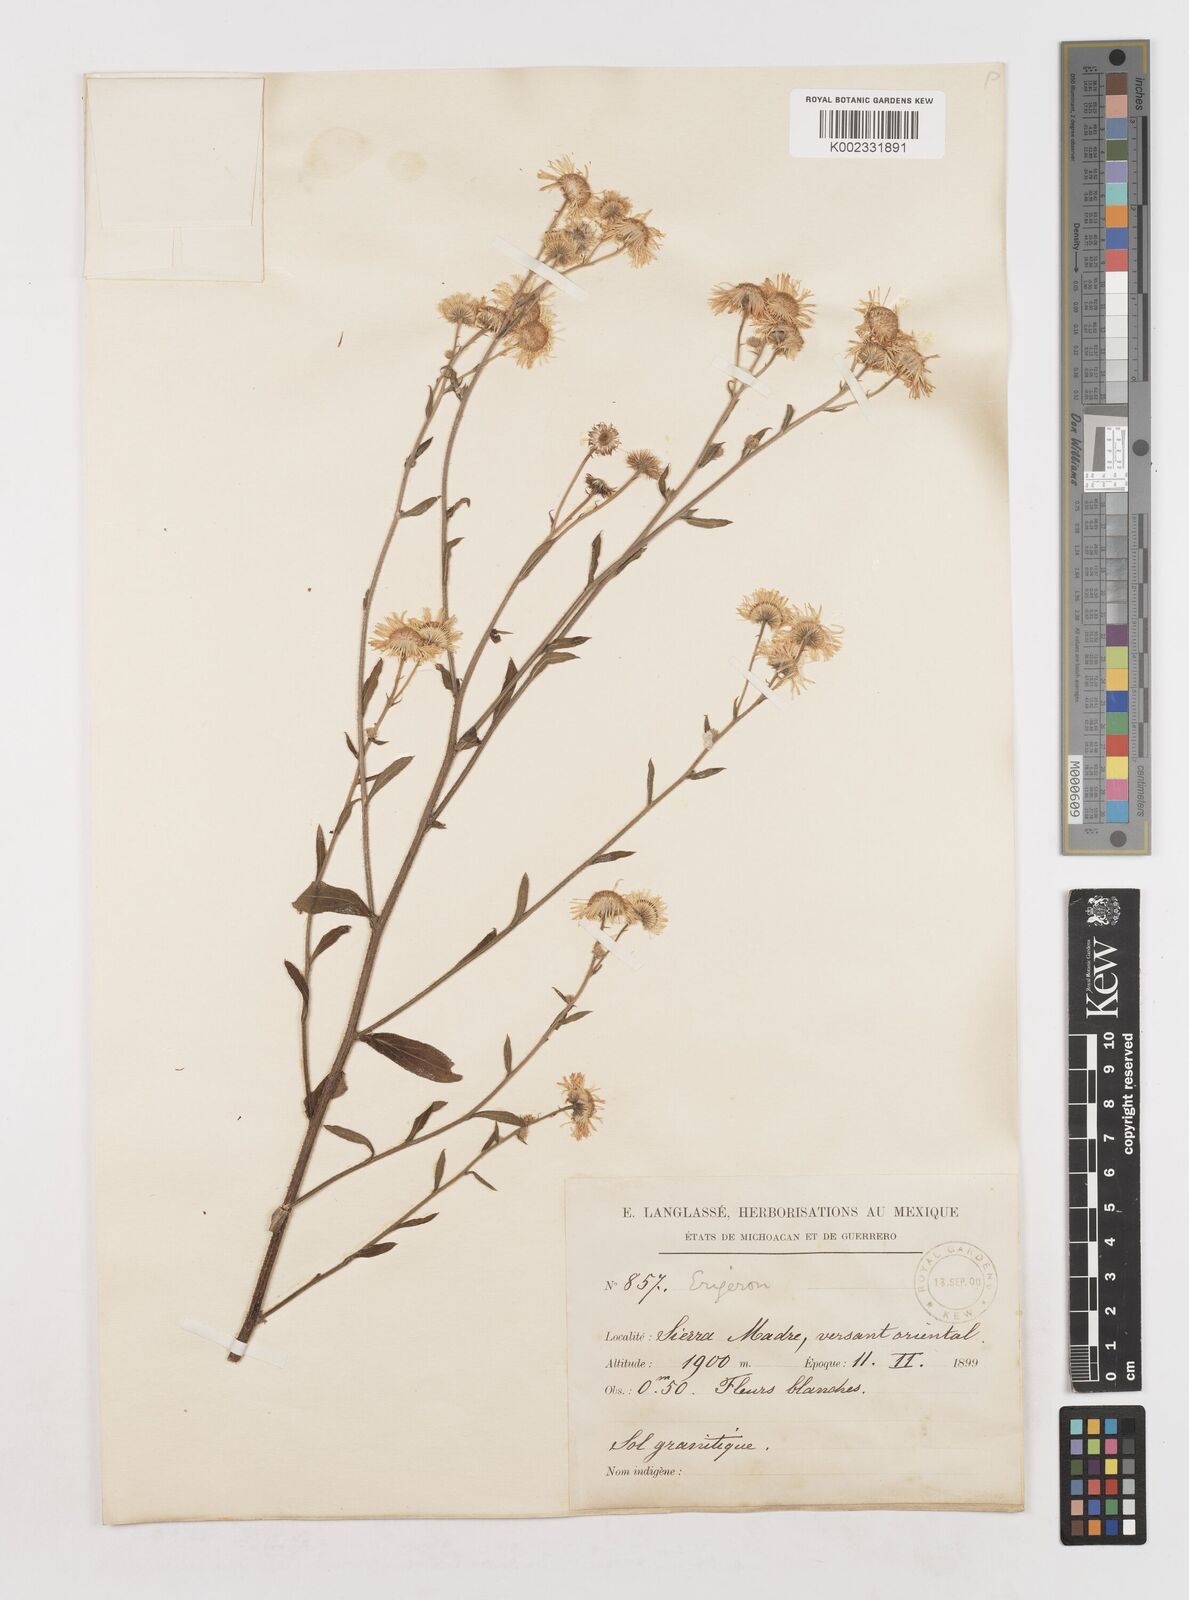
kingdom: Plantae
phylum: Tracheophyta
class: Magnoliopsida
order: Asterales
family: Asteraceae
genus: Erigeron
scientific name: Erigeron
